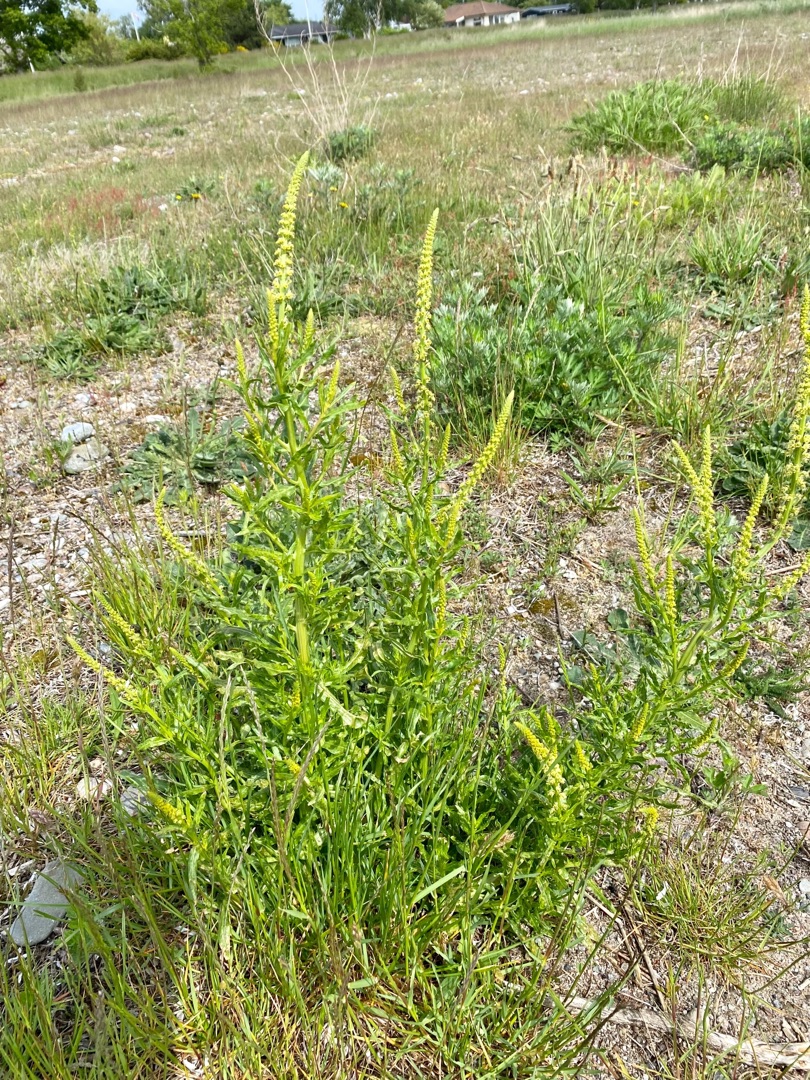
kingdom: Plantae
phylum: Tracheophyta
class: Magnoliopsida
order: Brassicales
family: Resedaceae
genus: Reseda
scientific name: Reseda luteola
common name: Farve-reseda
